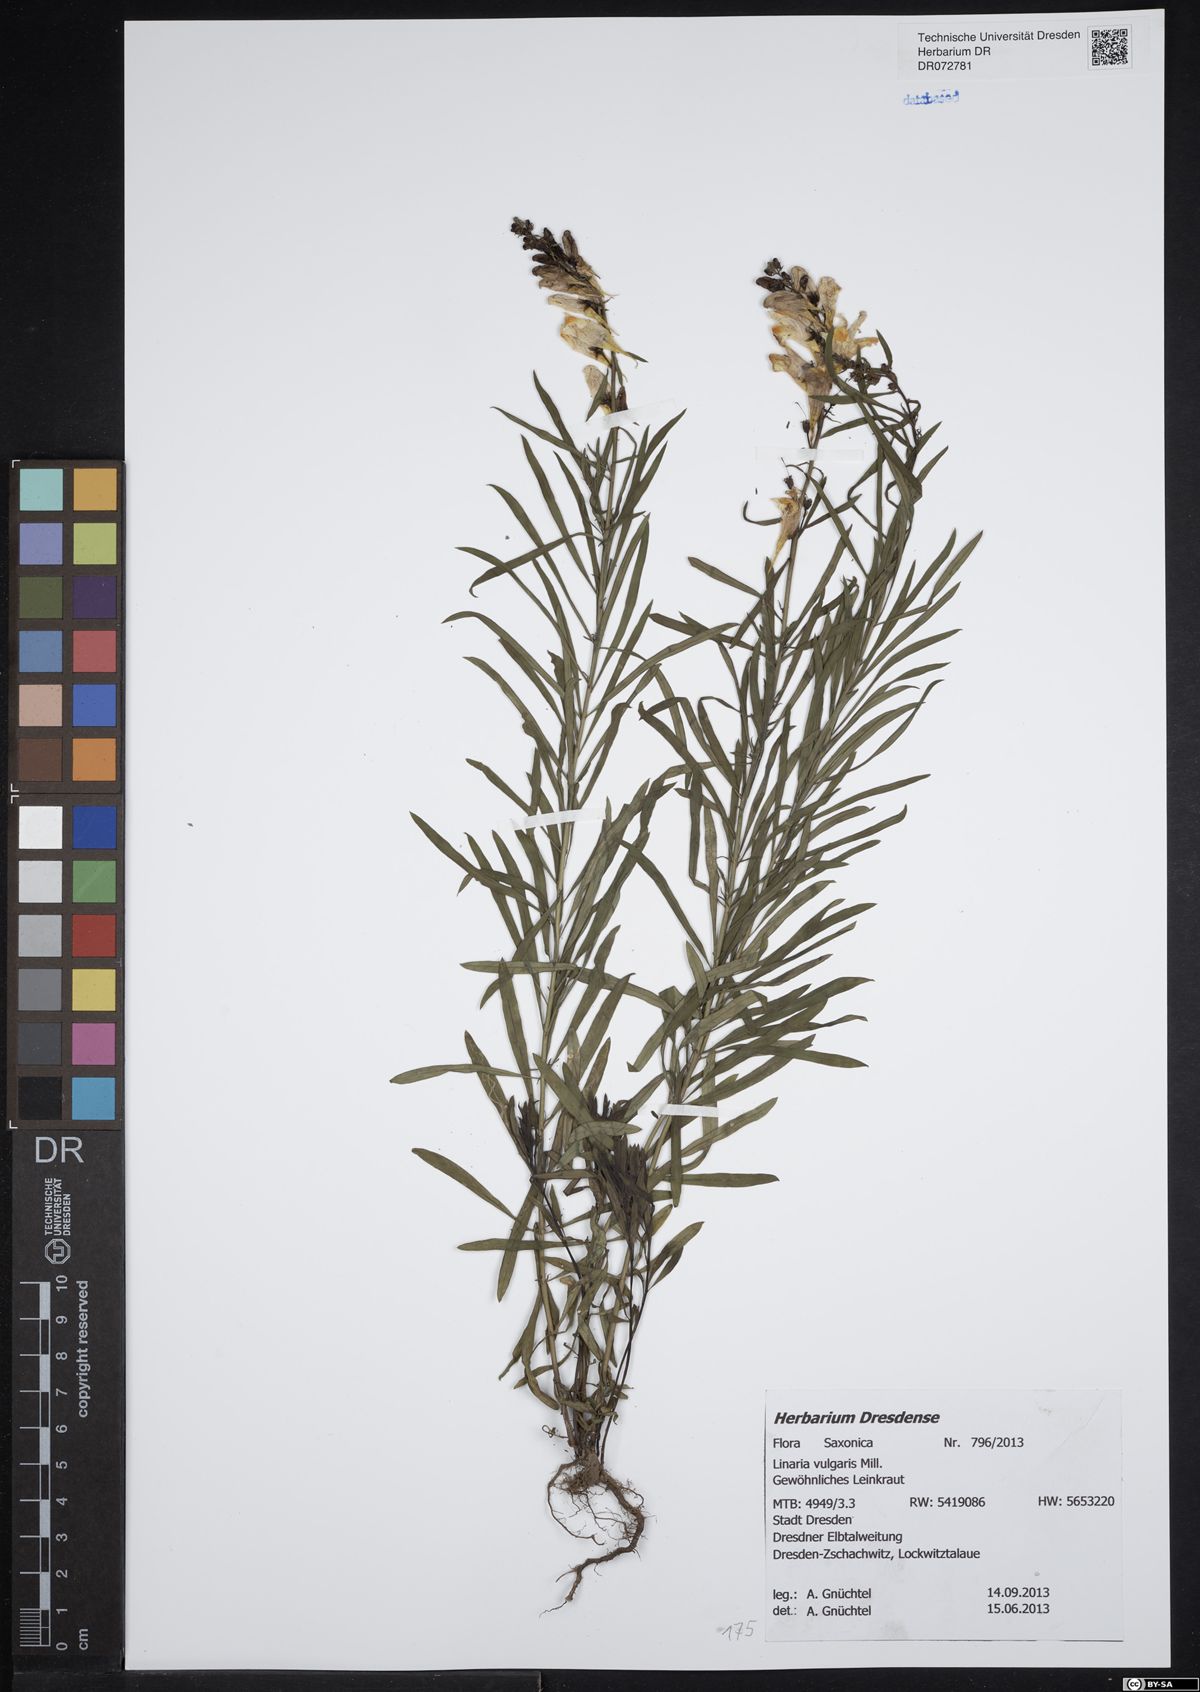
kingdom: Plantae
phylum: Tracheophyta
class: Magnoliopsida
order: Lamiales
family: Plantaginaceae
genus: Linaria
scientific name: Linaria vulgaris
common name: Butter and eggs
